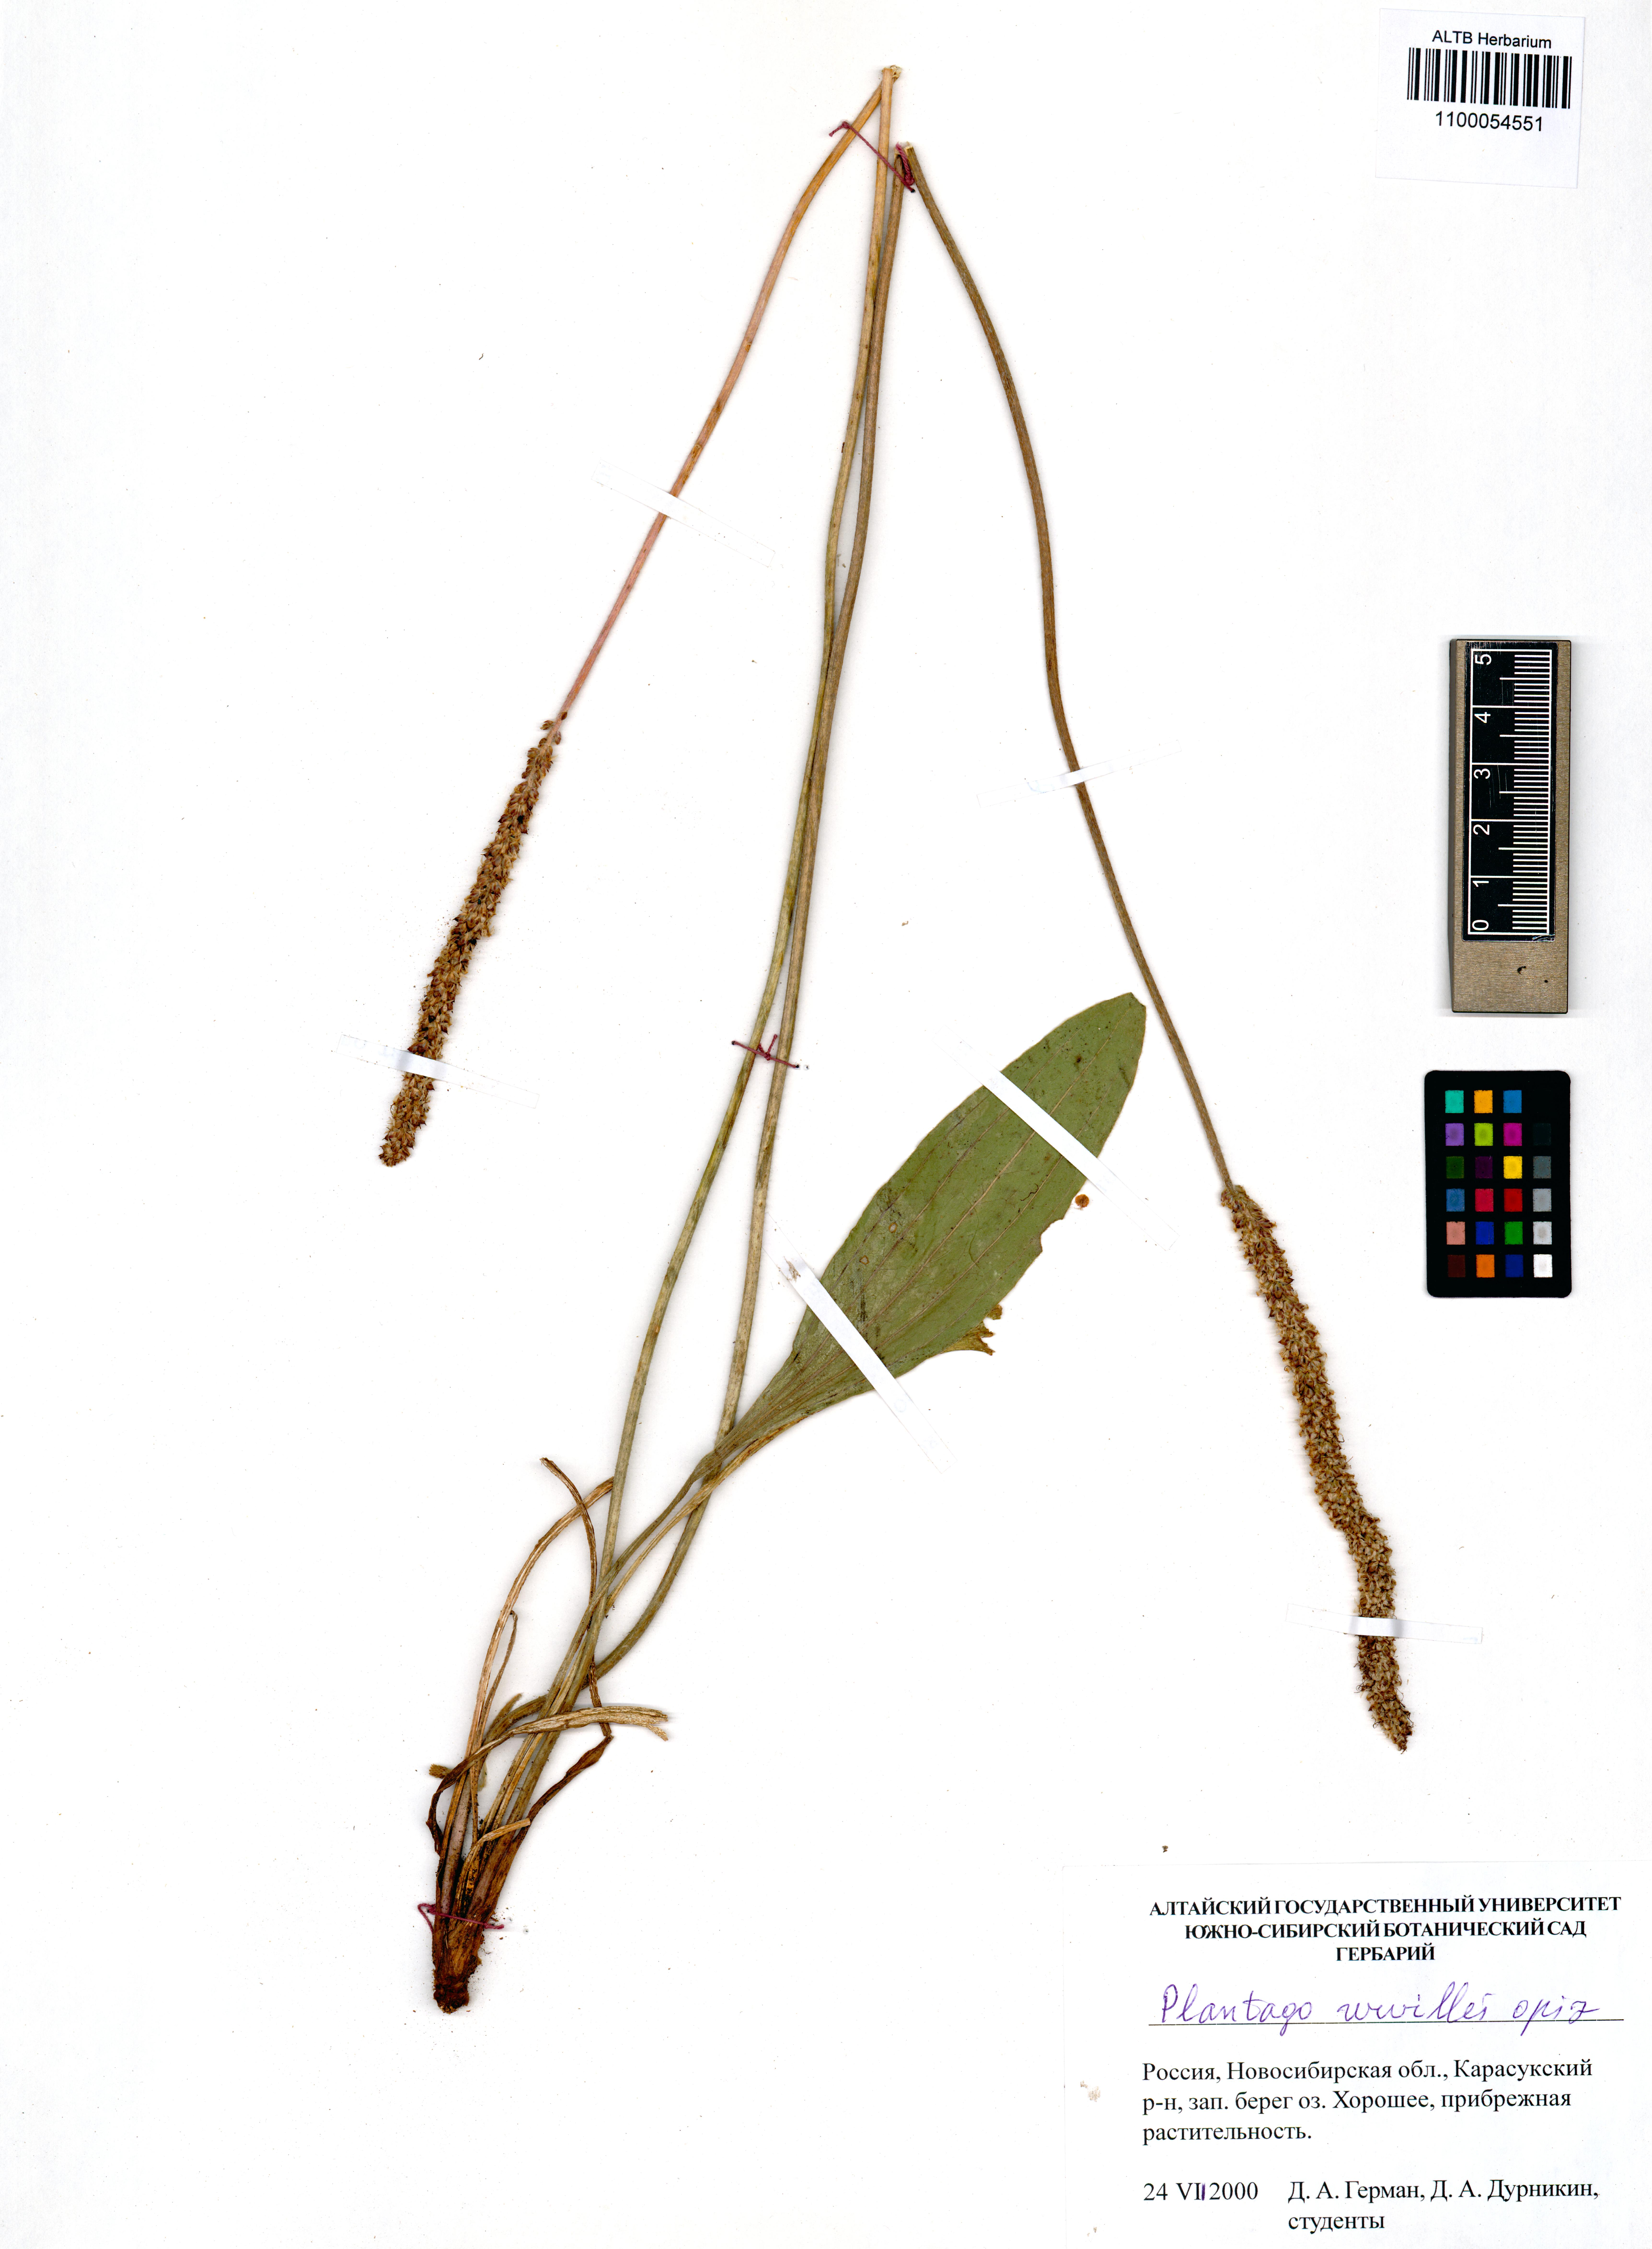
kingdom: Plantae
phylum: Tracheophyta
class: Magnoliopsida
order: Lamiales
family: Plantaginaceae
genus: Plantago
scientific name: Plantago urvillei
